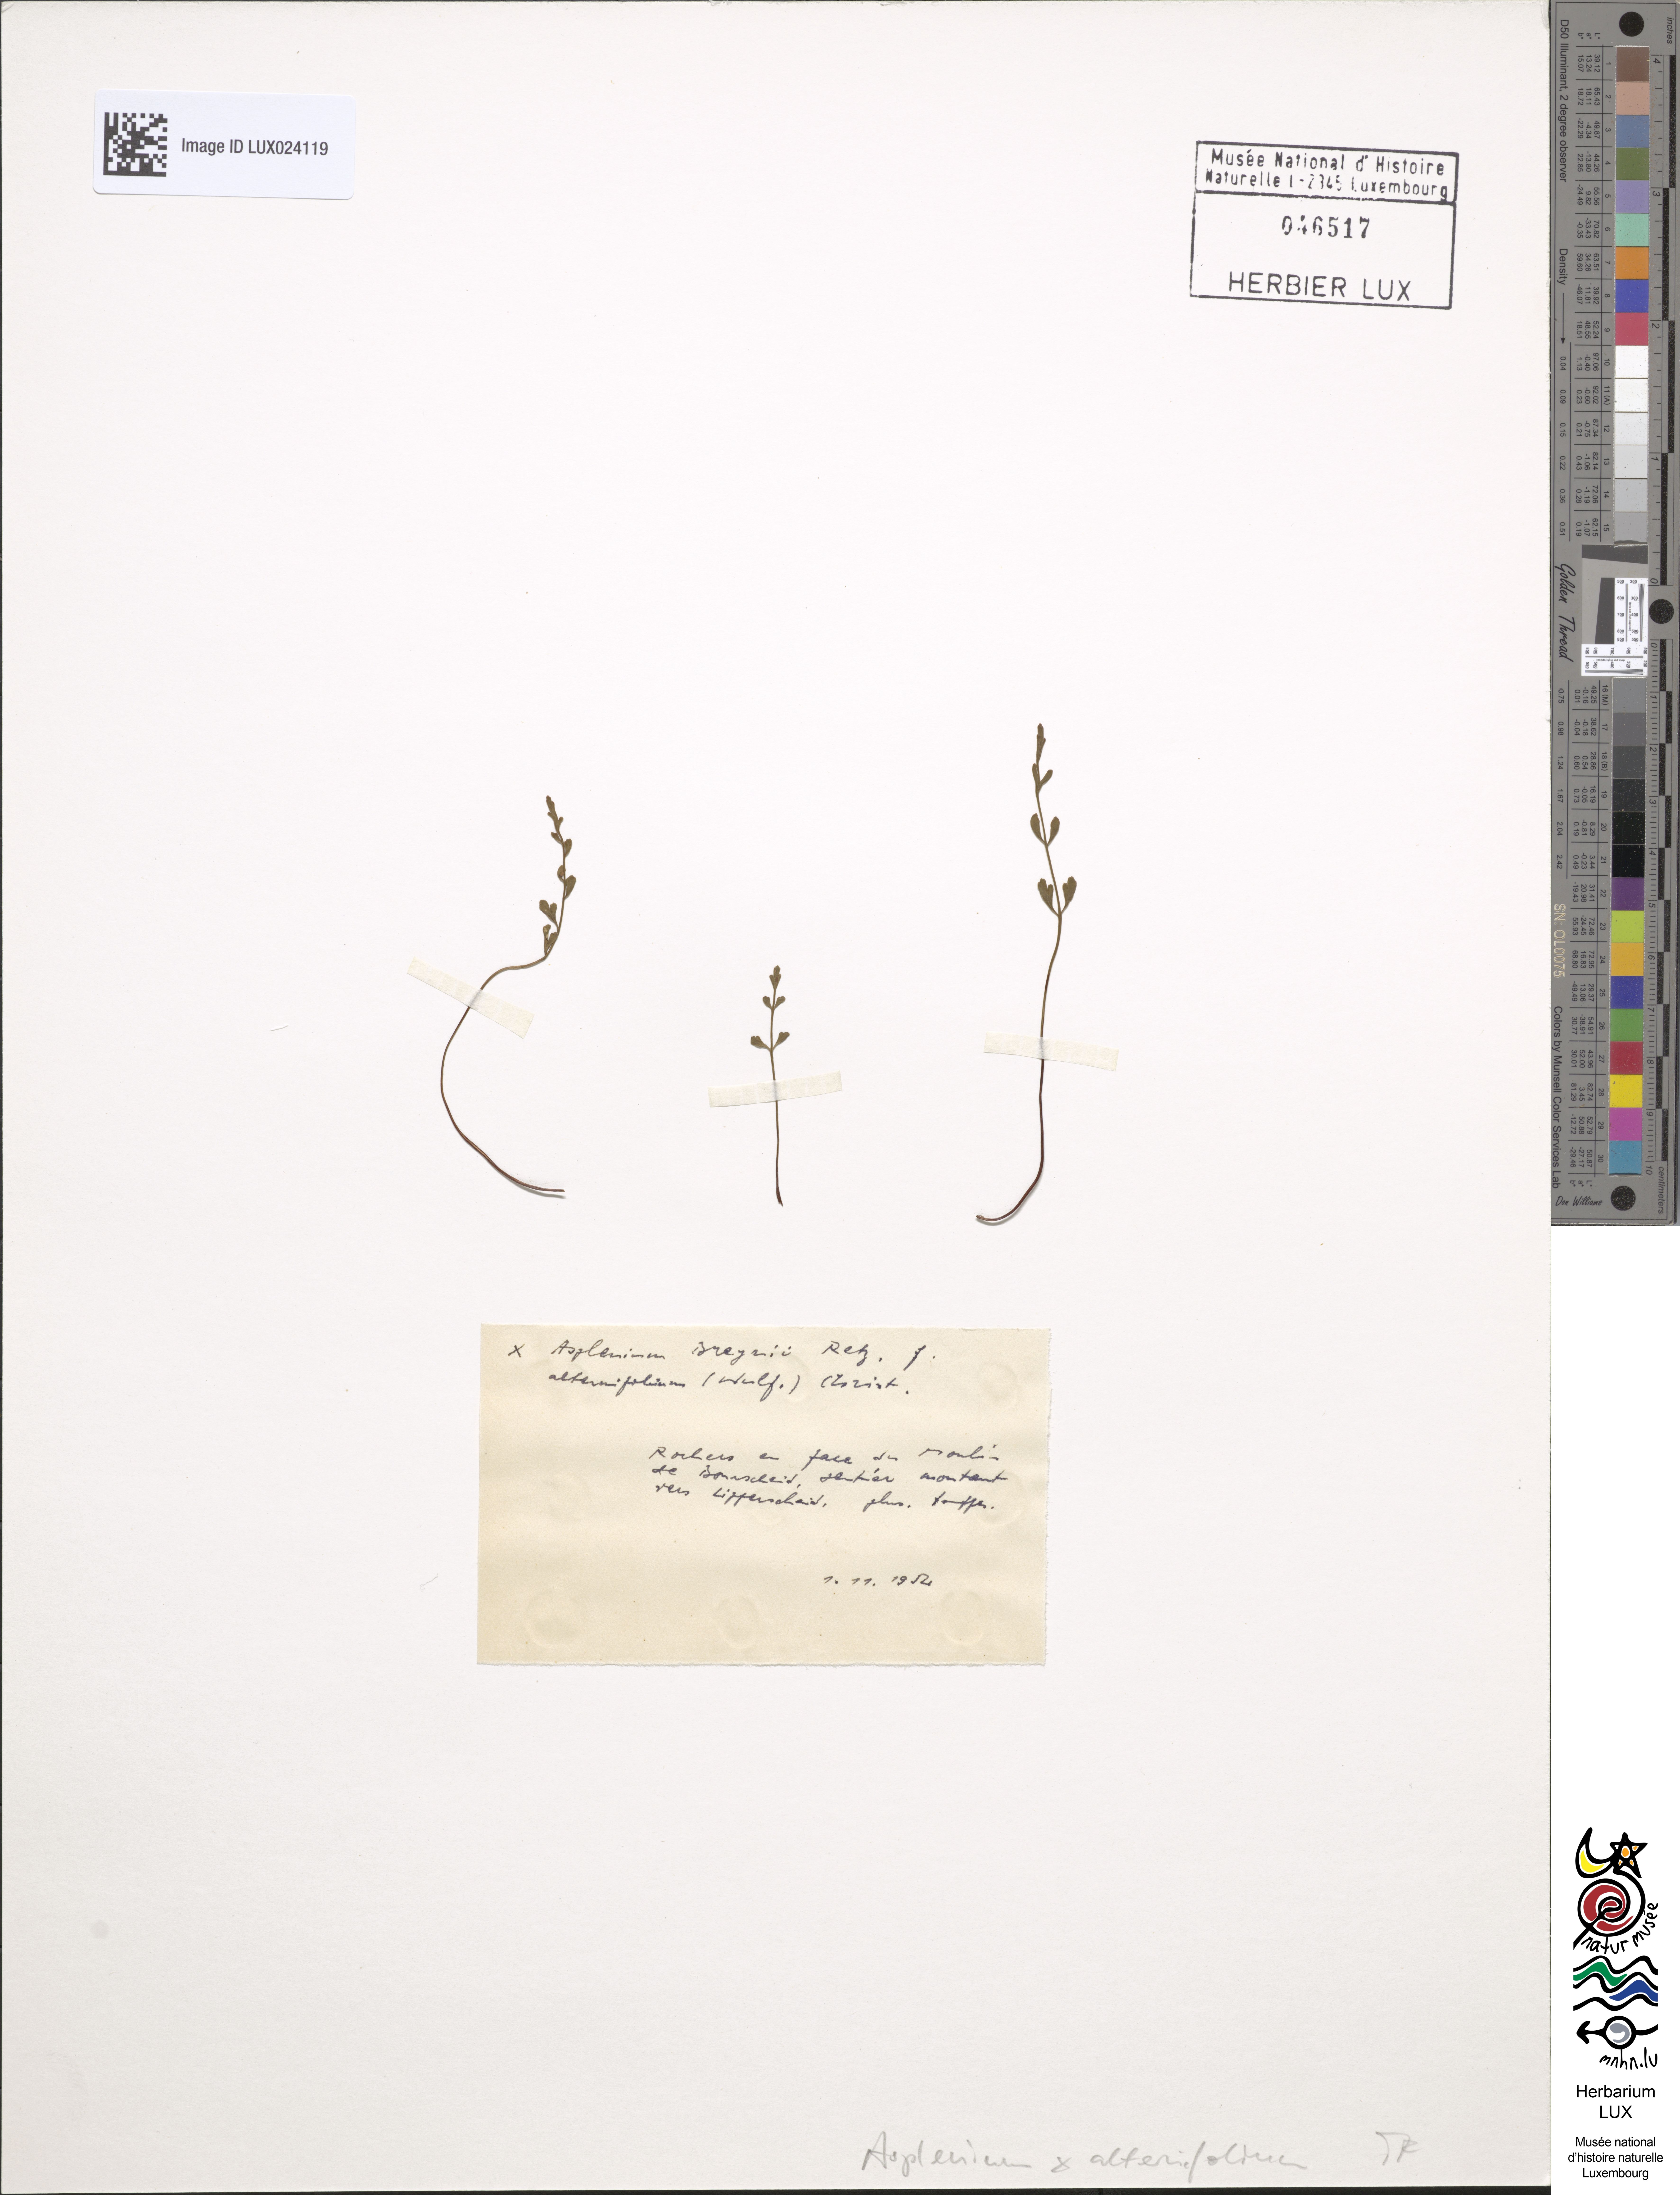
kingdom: Plantae
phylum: Tracheophyta
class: Polypodiopsida
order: Polypodiales
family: Aspleniaceae
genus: Asplenium
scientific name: Asplenium alternifolium
